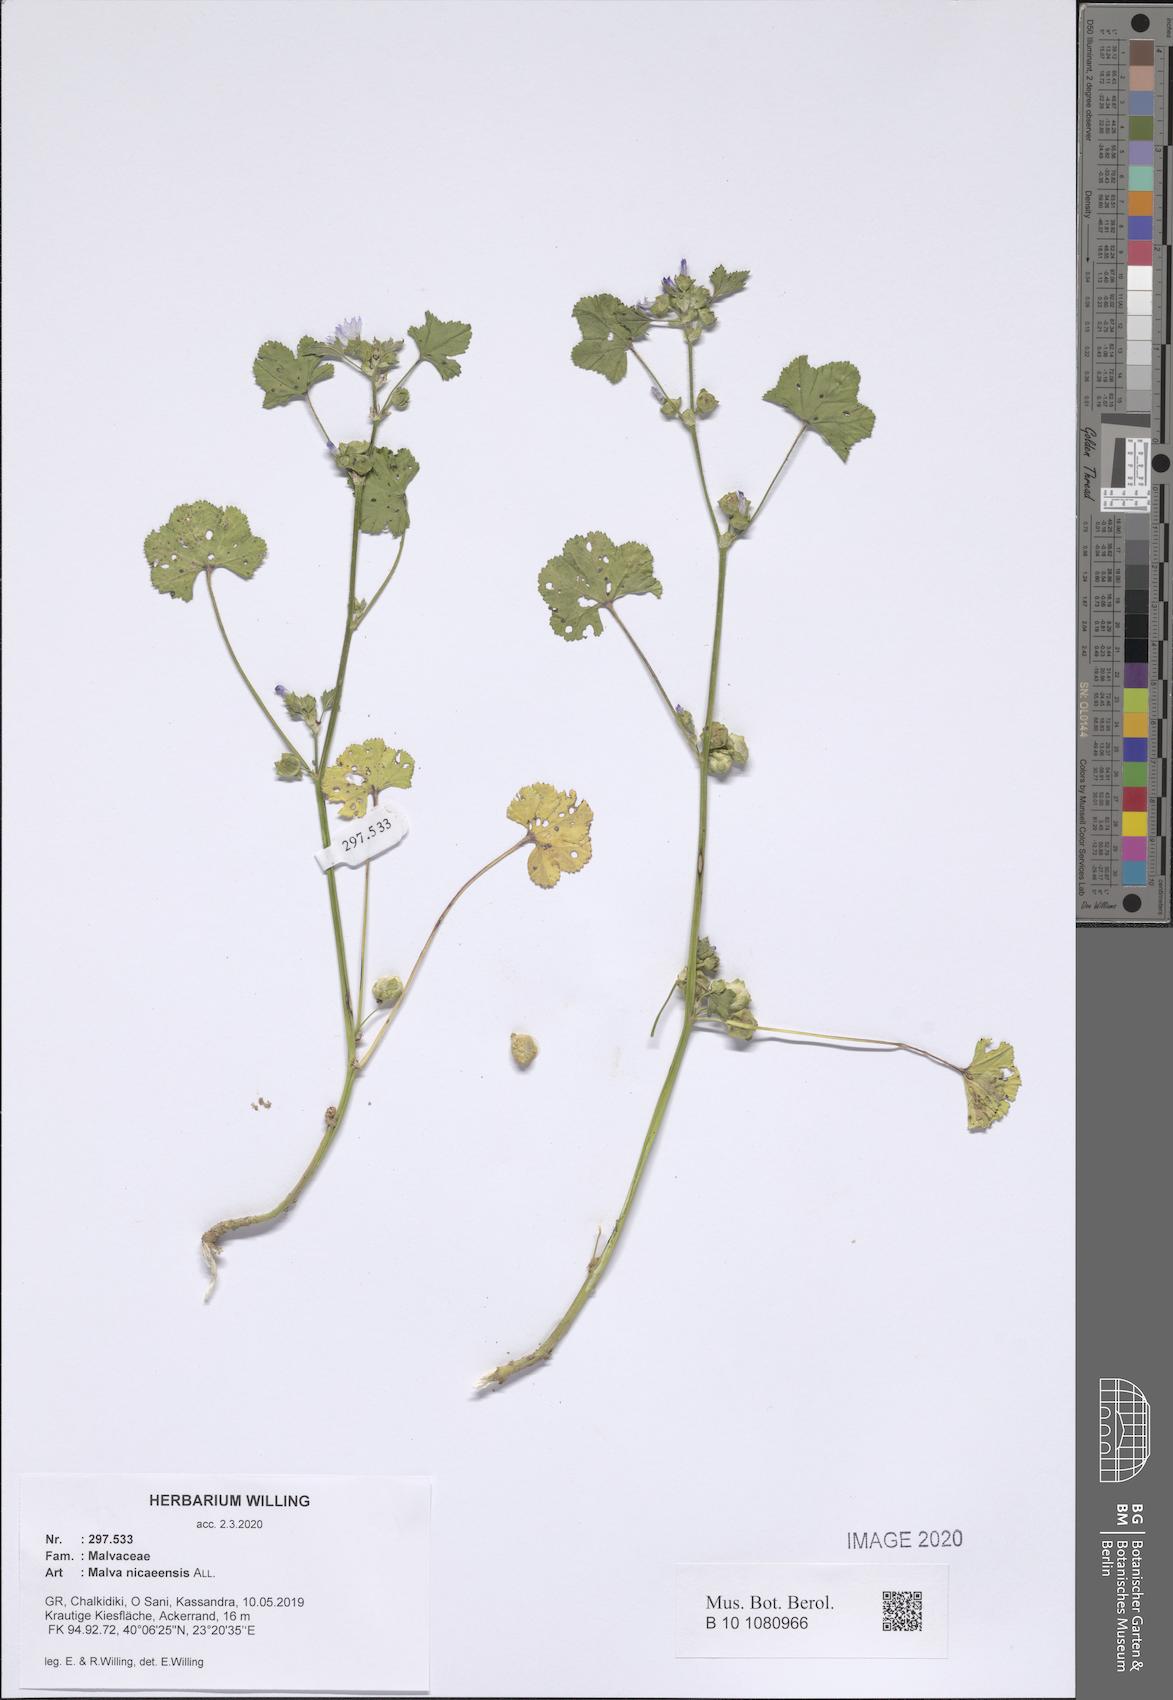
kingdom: Plantae
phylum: Tracheophyta
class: Magnoliopsida
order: Malvales
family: Malvaceae
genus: Malva
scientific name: Malva nicaeensis
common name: French mallow
